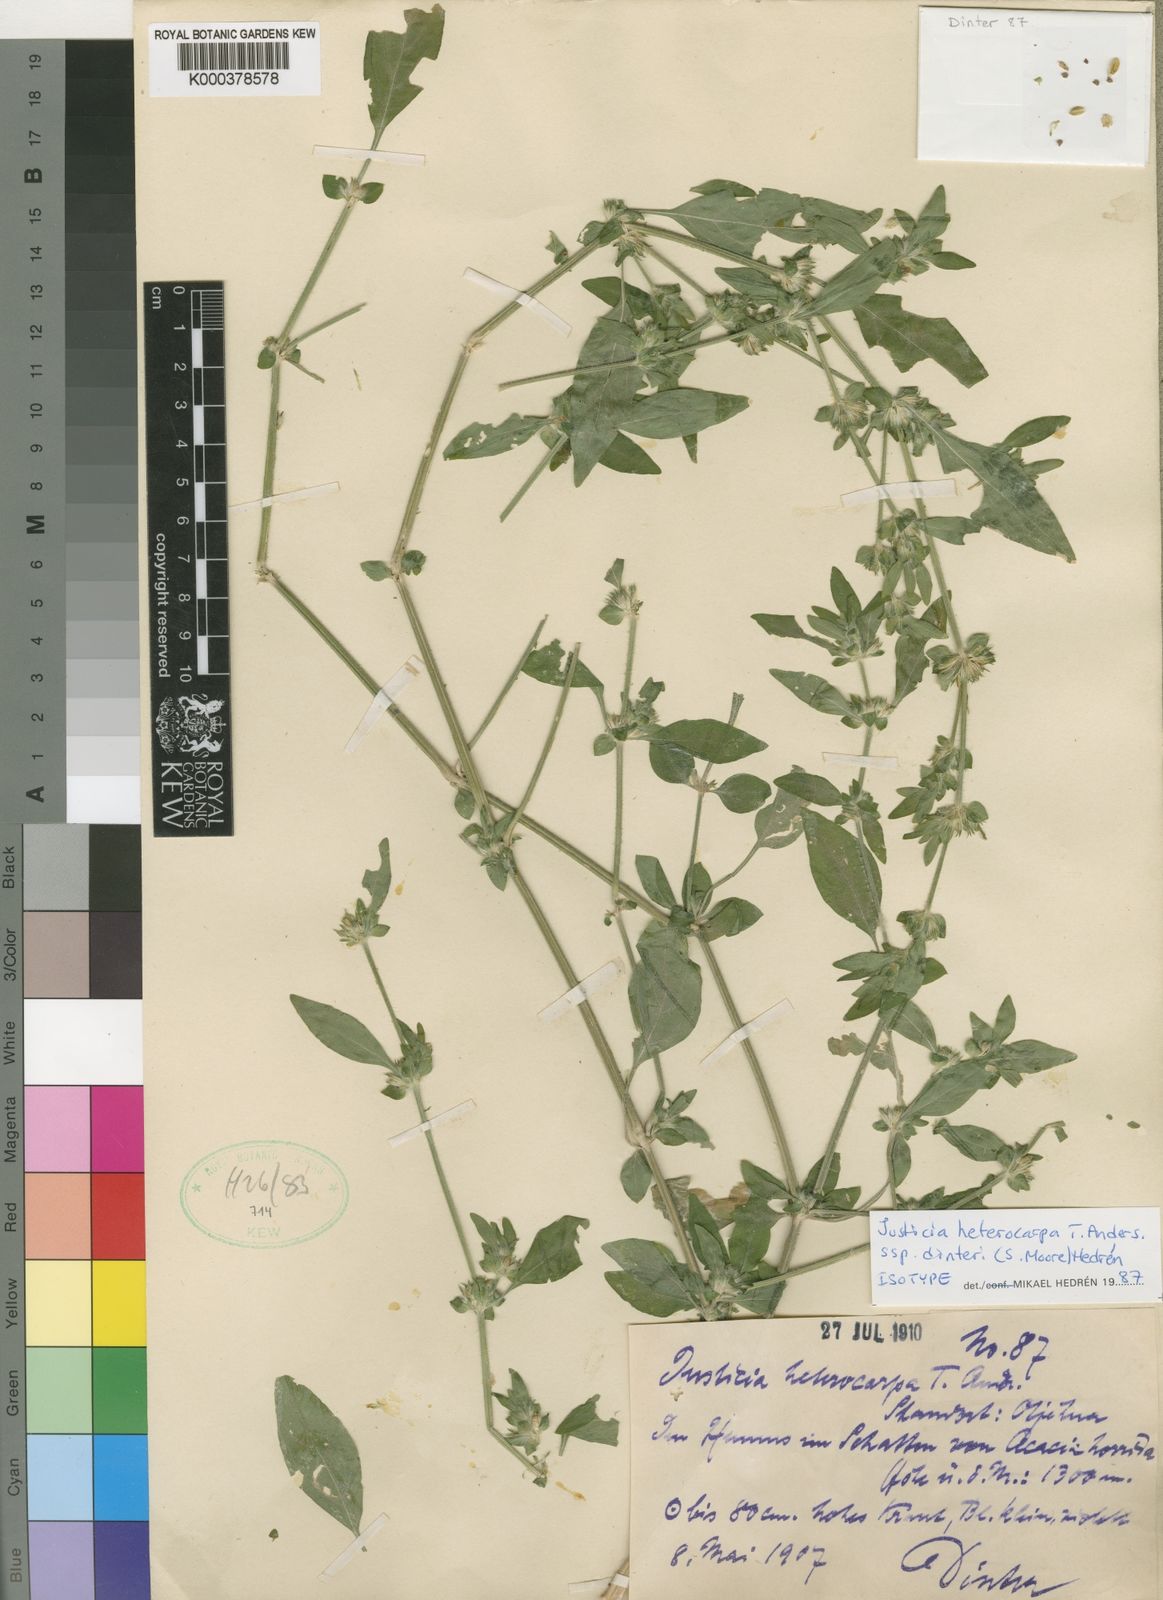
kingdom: Plantae
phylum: Tracheophyta
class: Magnoliopsida
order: Lamiales
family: Acanthaceae
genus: Justicia
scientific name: Justicia heterocarpa
